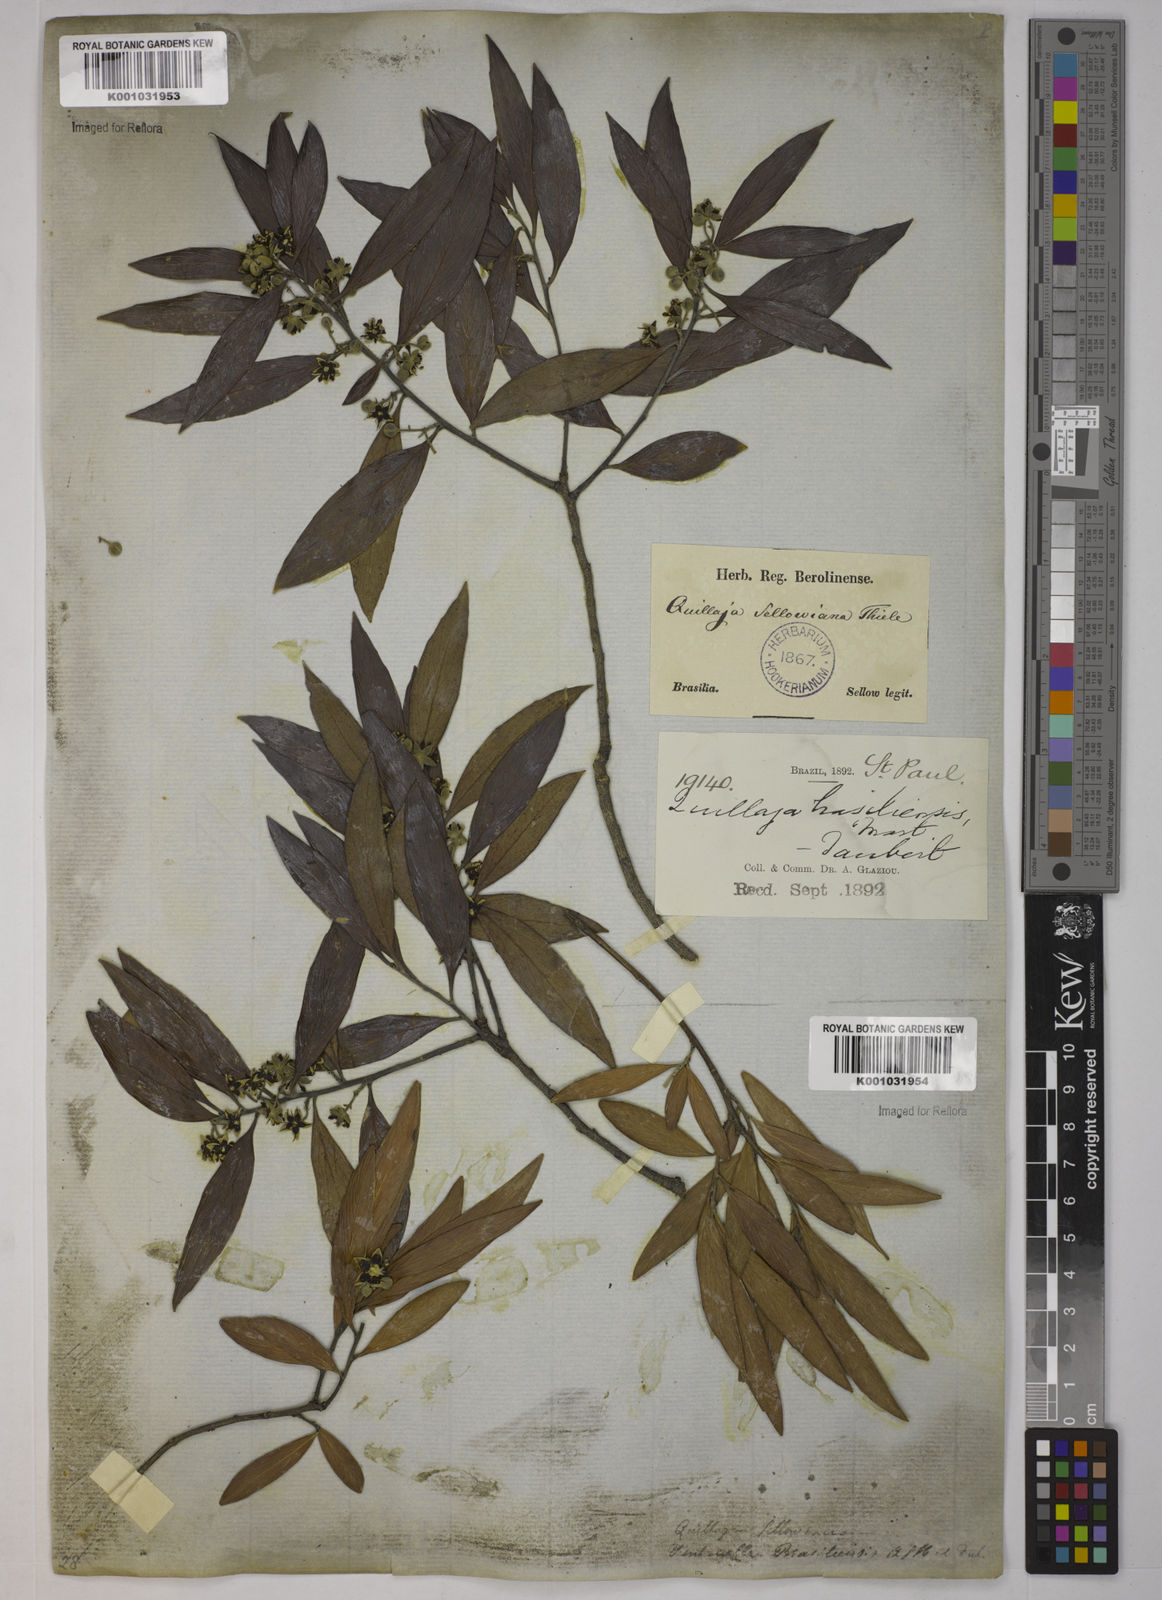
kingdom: Plantae
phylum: Tracheophyta
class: Magnoliopsida
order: Fabales
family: Quillajaceae
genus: Quillaja
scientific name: Quillaja brasiliensis
